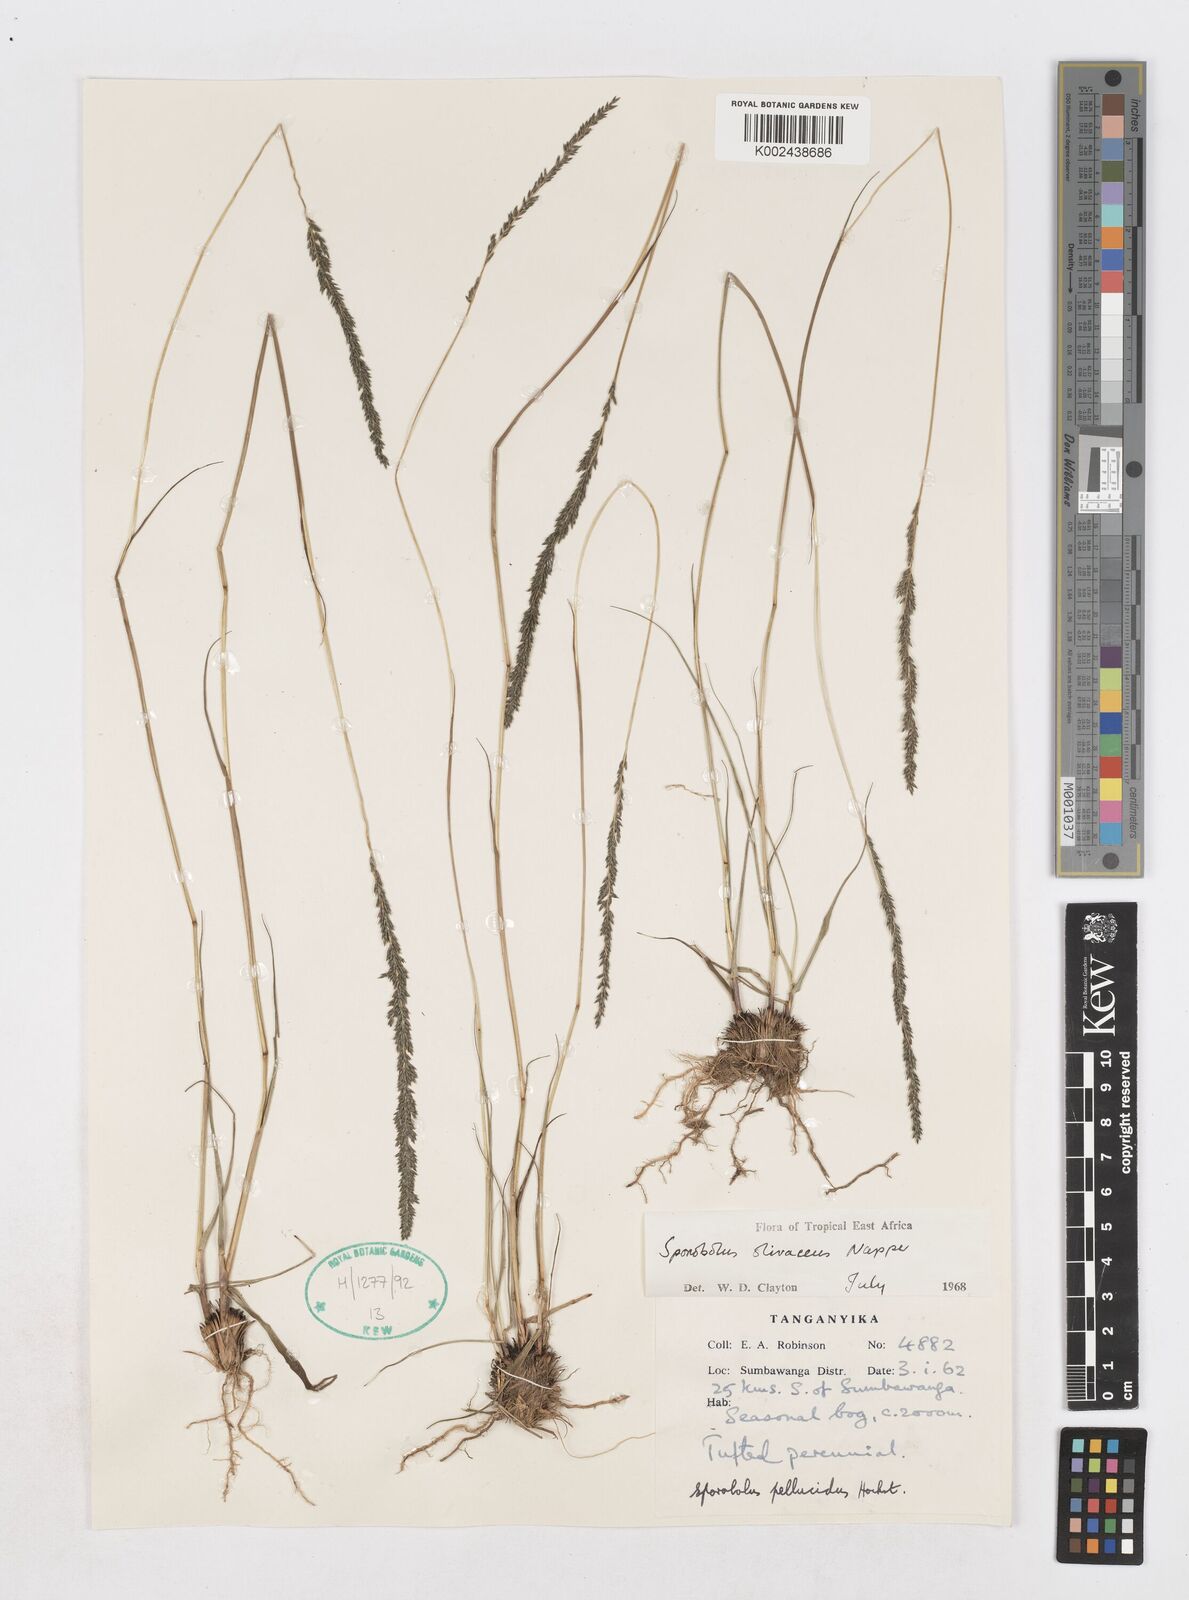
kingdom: Plantae
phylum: Tracheophyta
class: Liliopsida
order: Poales
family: Poaceae
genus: Sporobolus
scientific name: Sporobolus olivaceus
